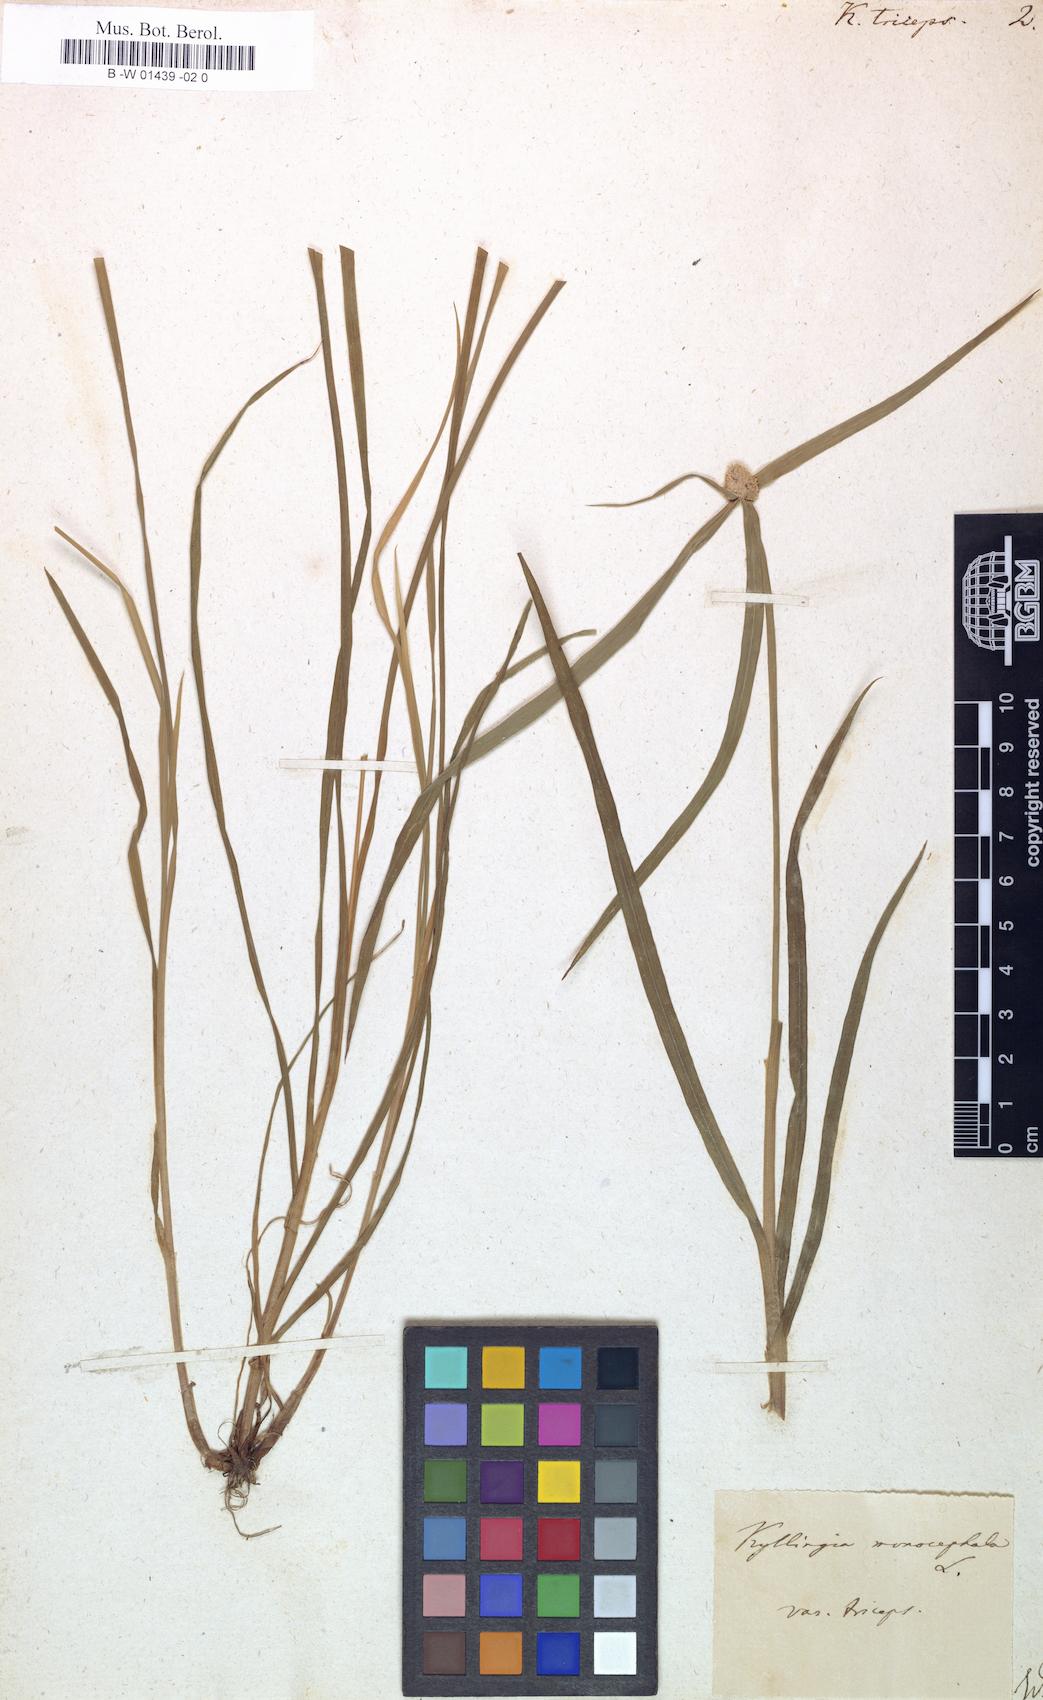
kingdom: Plantae
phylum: Tracheophyta
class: Liliopsida
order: Poales
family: Cyperaceae
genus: Cyperus
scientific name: Cyperus Kyllinga triceps
